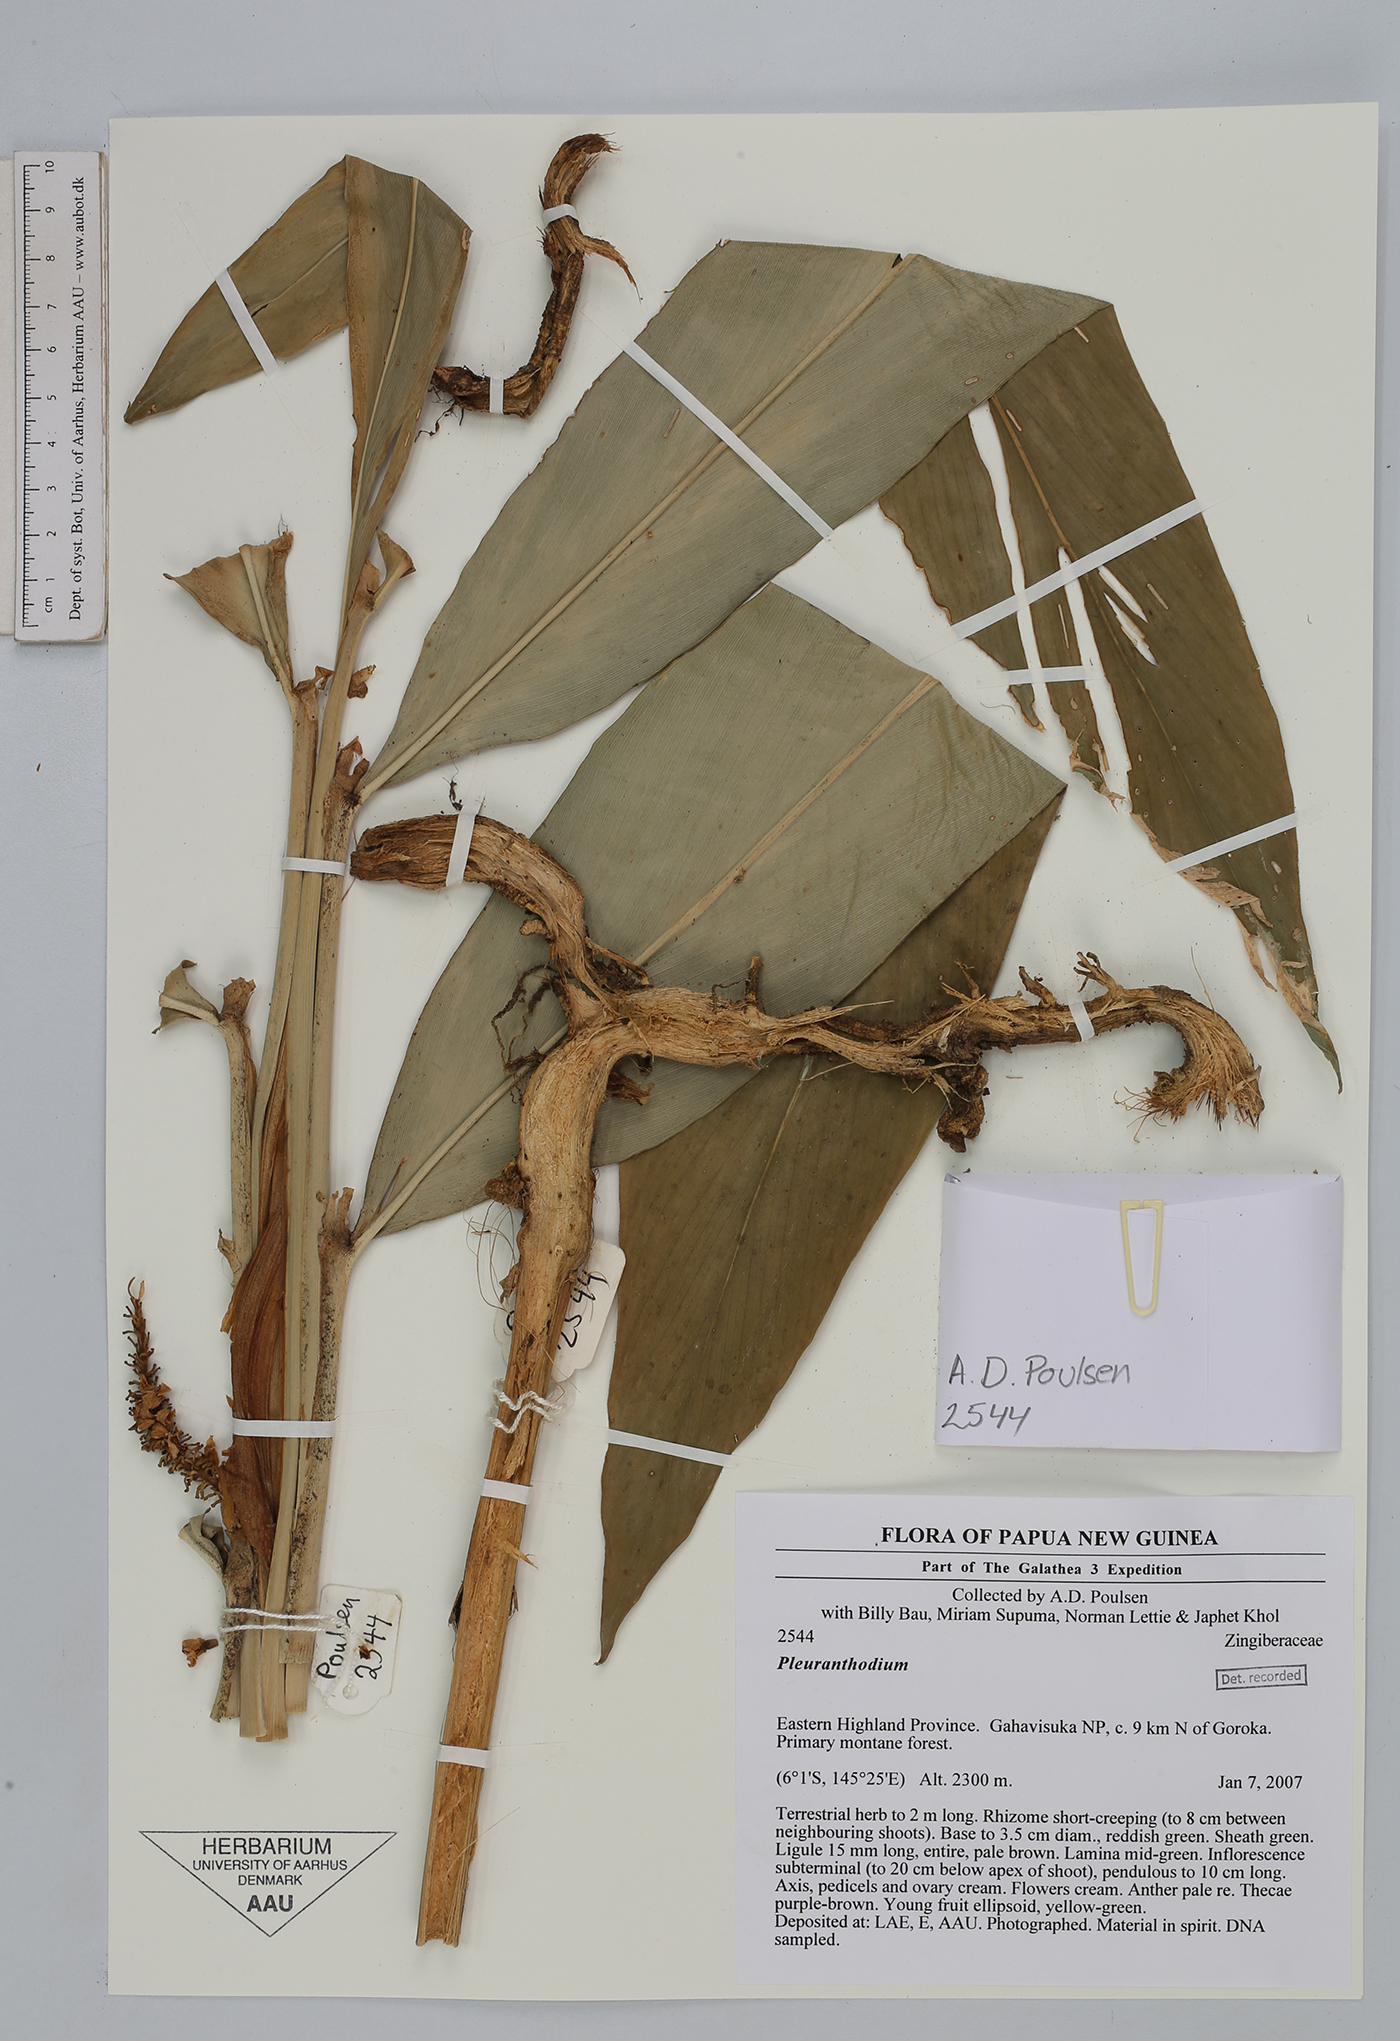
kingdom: Plantae
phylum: Tracheophyta
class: Liliopsida
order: Zingiberales
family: Zingiberaceae
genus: Pleuranthodium
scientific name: Pleuranthodium
